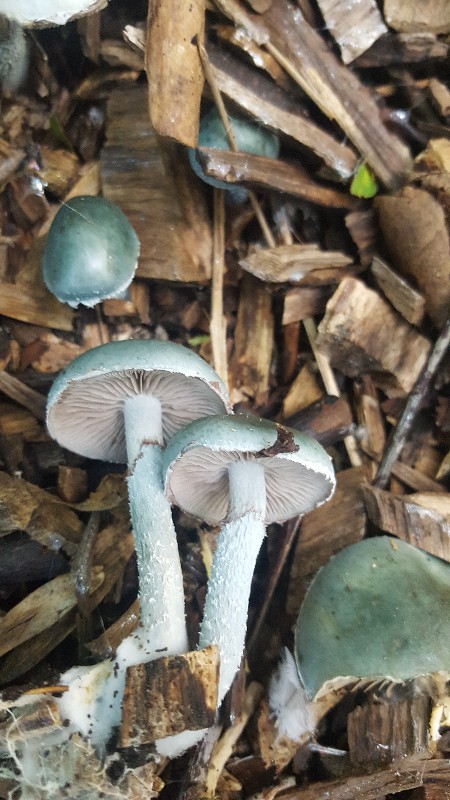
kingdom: Fungi
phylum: Basidiomycota
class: Agaricomycetes
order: Agaricales
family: Strophariaceae
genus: Stropharia
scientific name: Stropharia aeruginosa
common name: spanskgrøn bredblad
